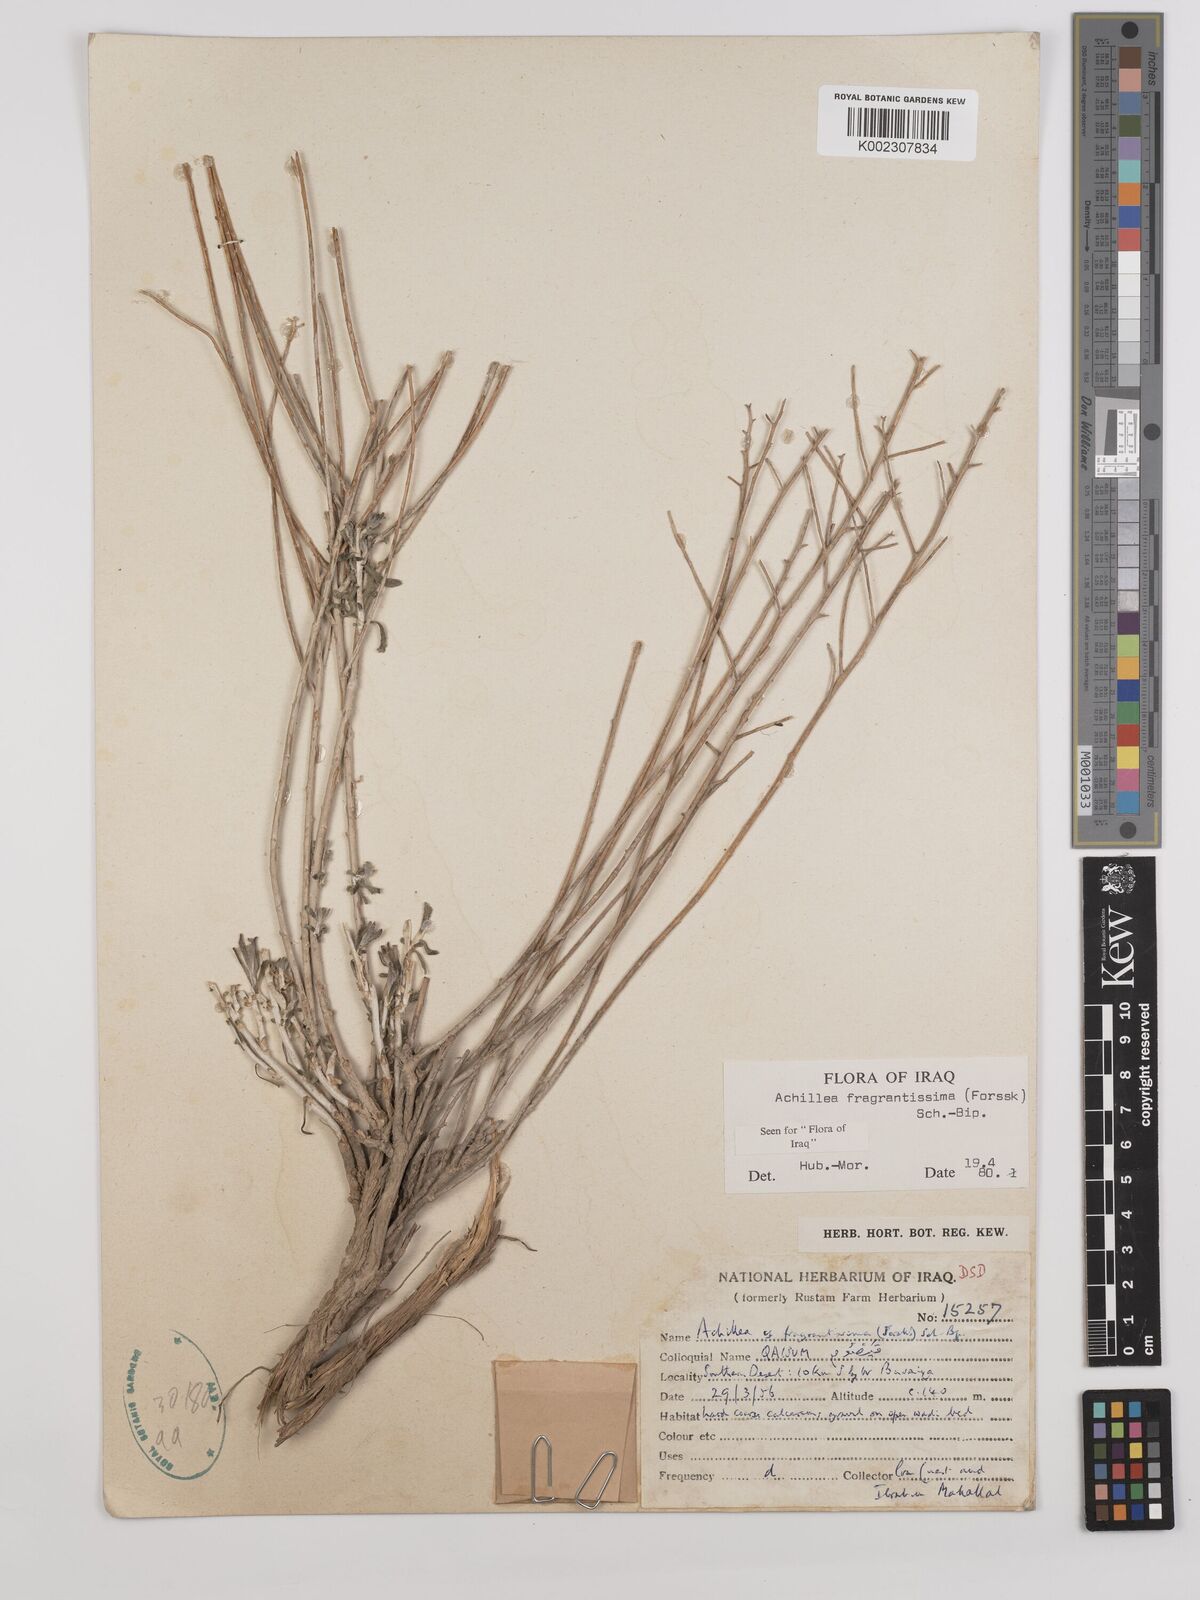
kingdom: Plantae
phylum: Tracheophyta
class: Magnoliopsida
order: Asterales
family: Asteraceae
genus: Achillea
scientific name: Achillea fragrantissima
